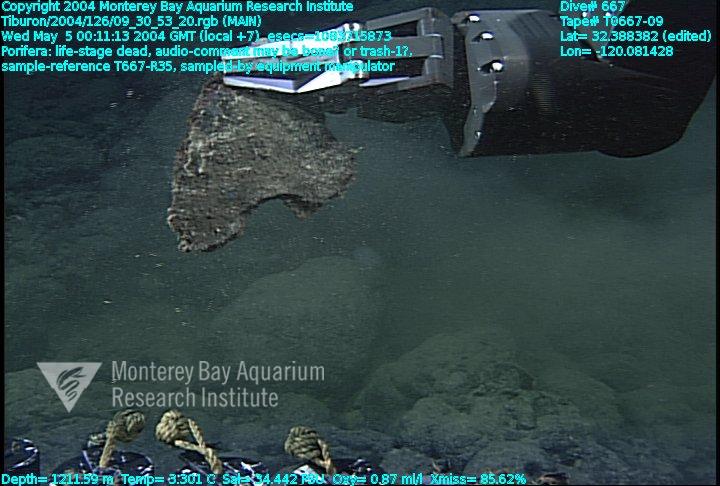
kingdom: Animalia
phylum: Porifera
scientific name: Porifera
